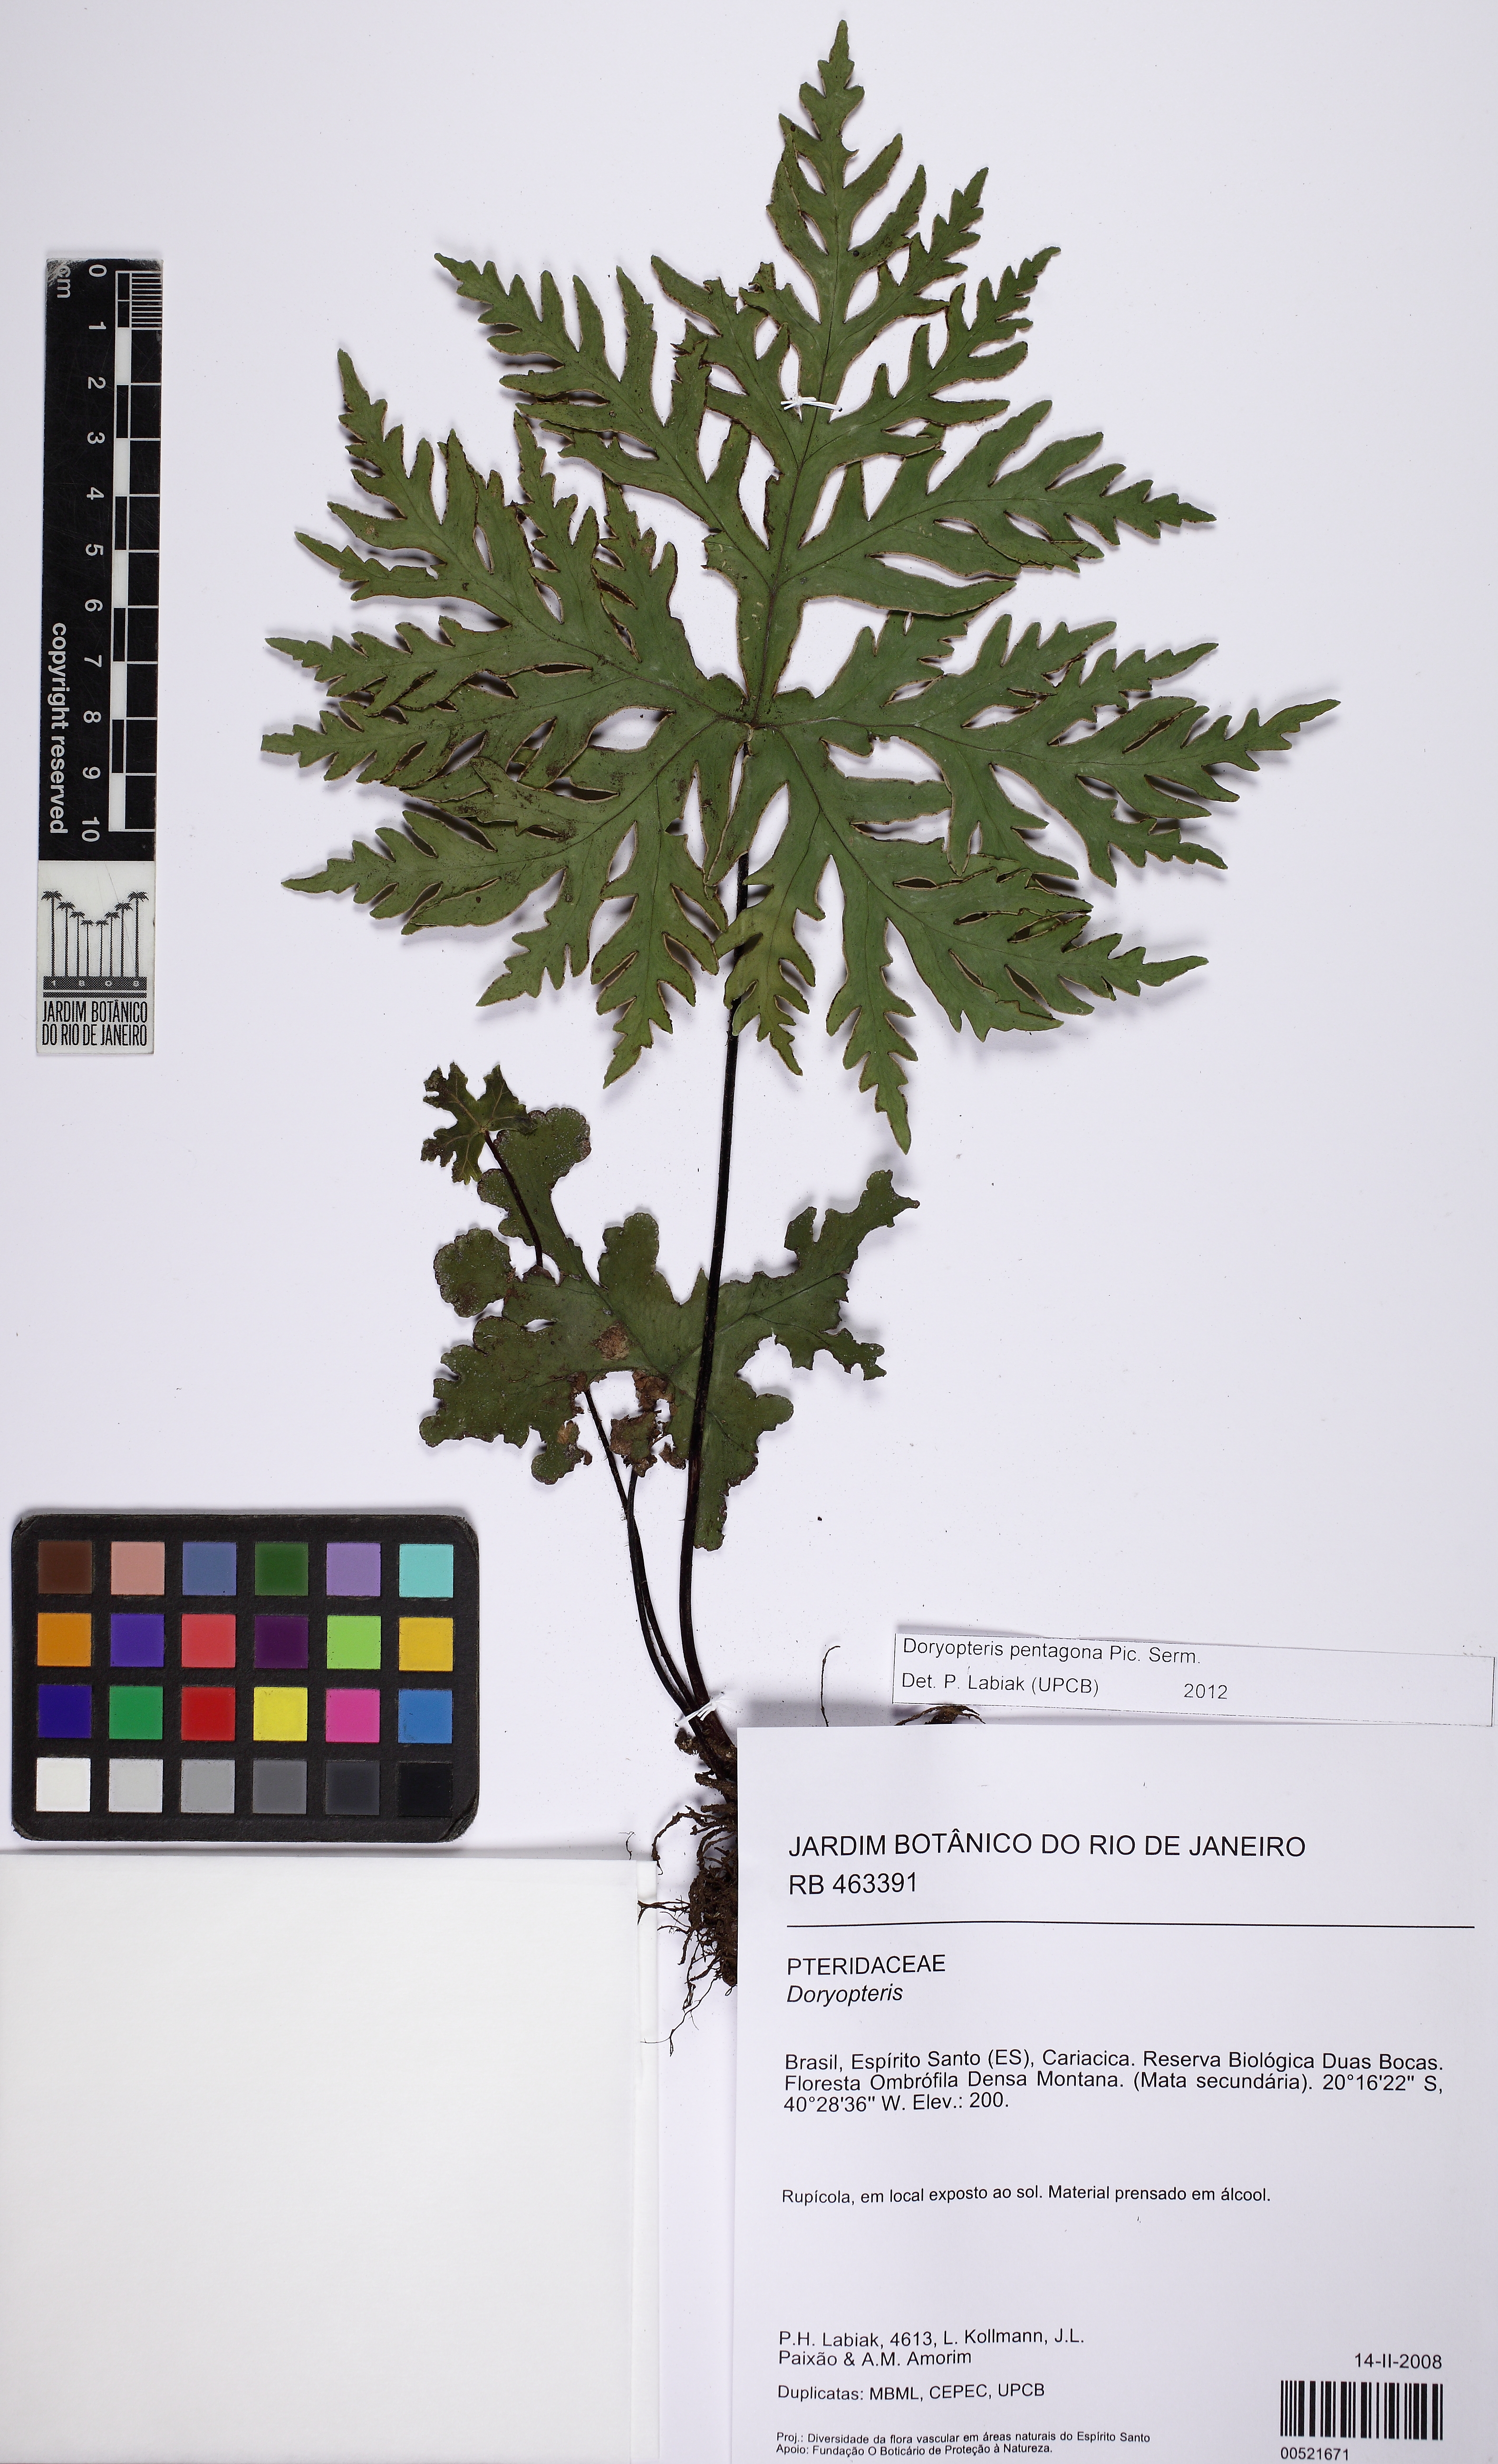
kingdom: Plantae
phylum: Tracheophyta
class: Polypodiopsida
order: Polypodiales
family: Pteridaceae
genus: Doryopteris
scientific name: Doryopteris pentagona
